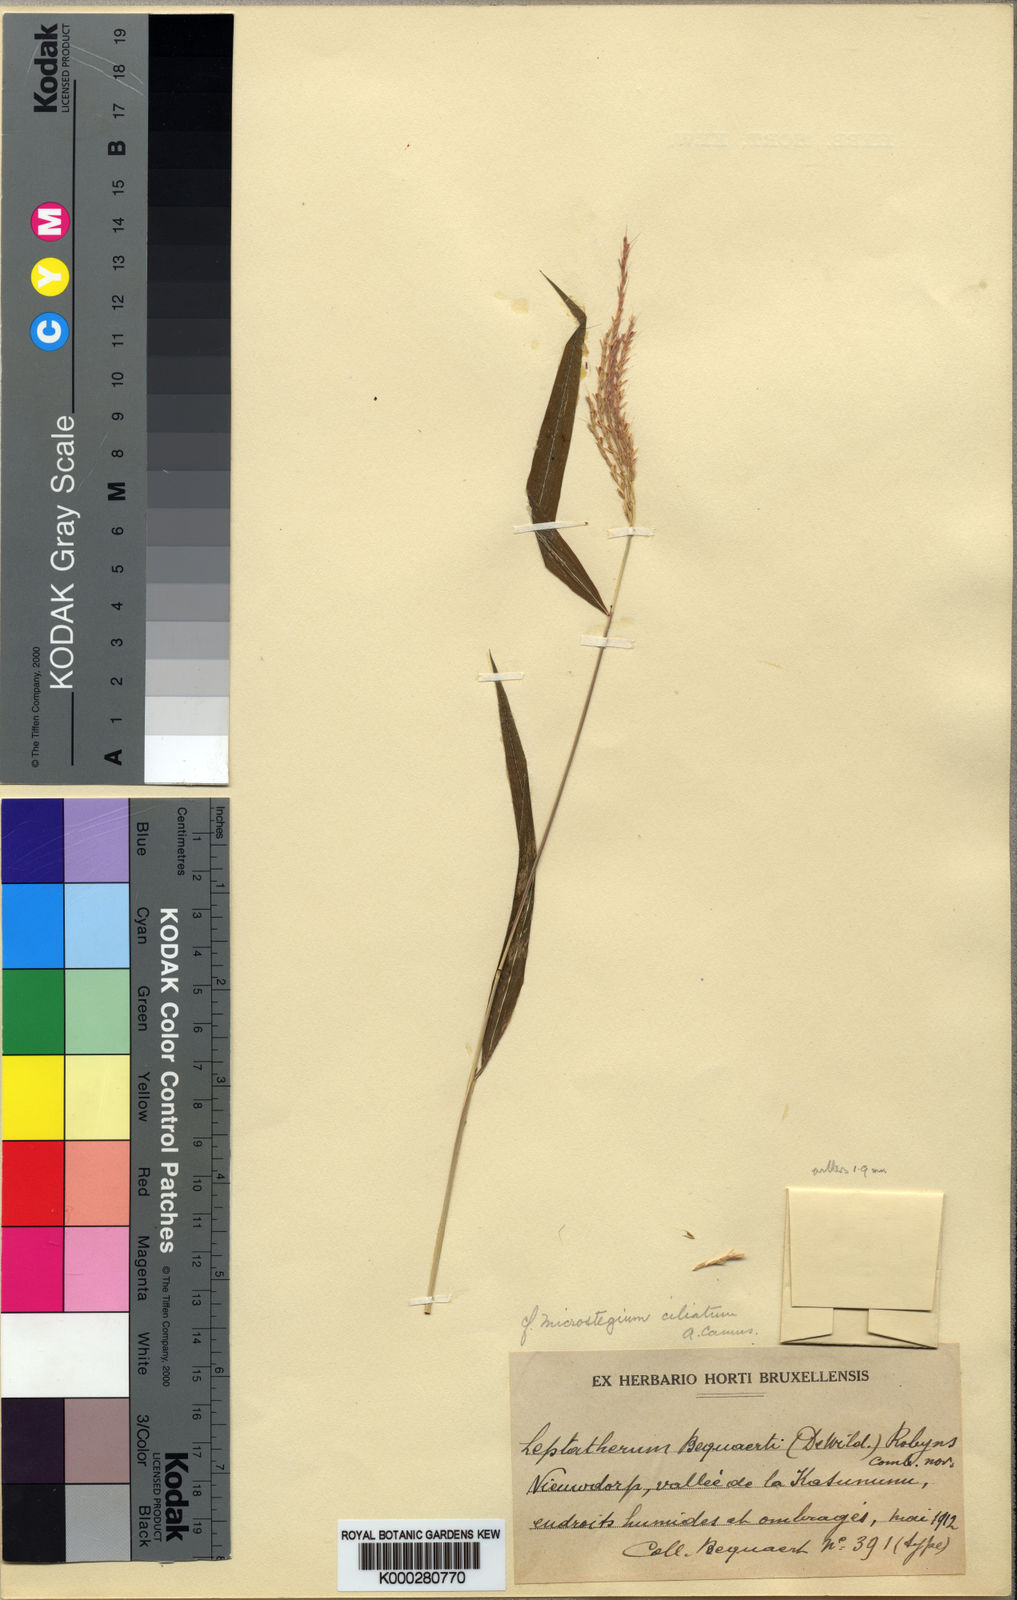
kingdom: Plantae
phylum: Tracheophyta
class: Liliopsida
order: Poales
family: Poaceae
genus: Microstegium
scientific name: Microstegium fasciculatum
